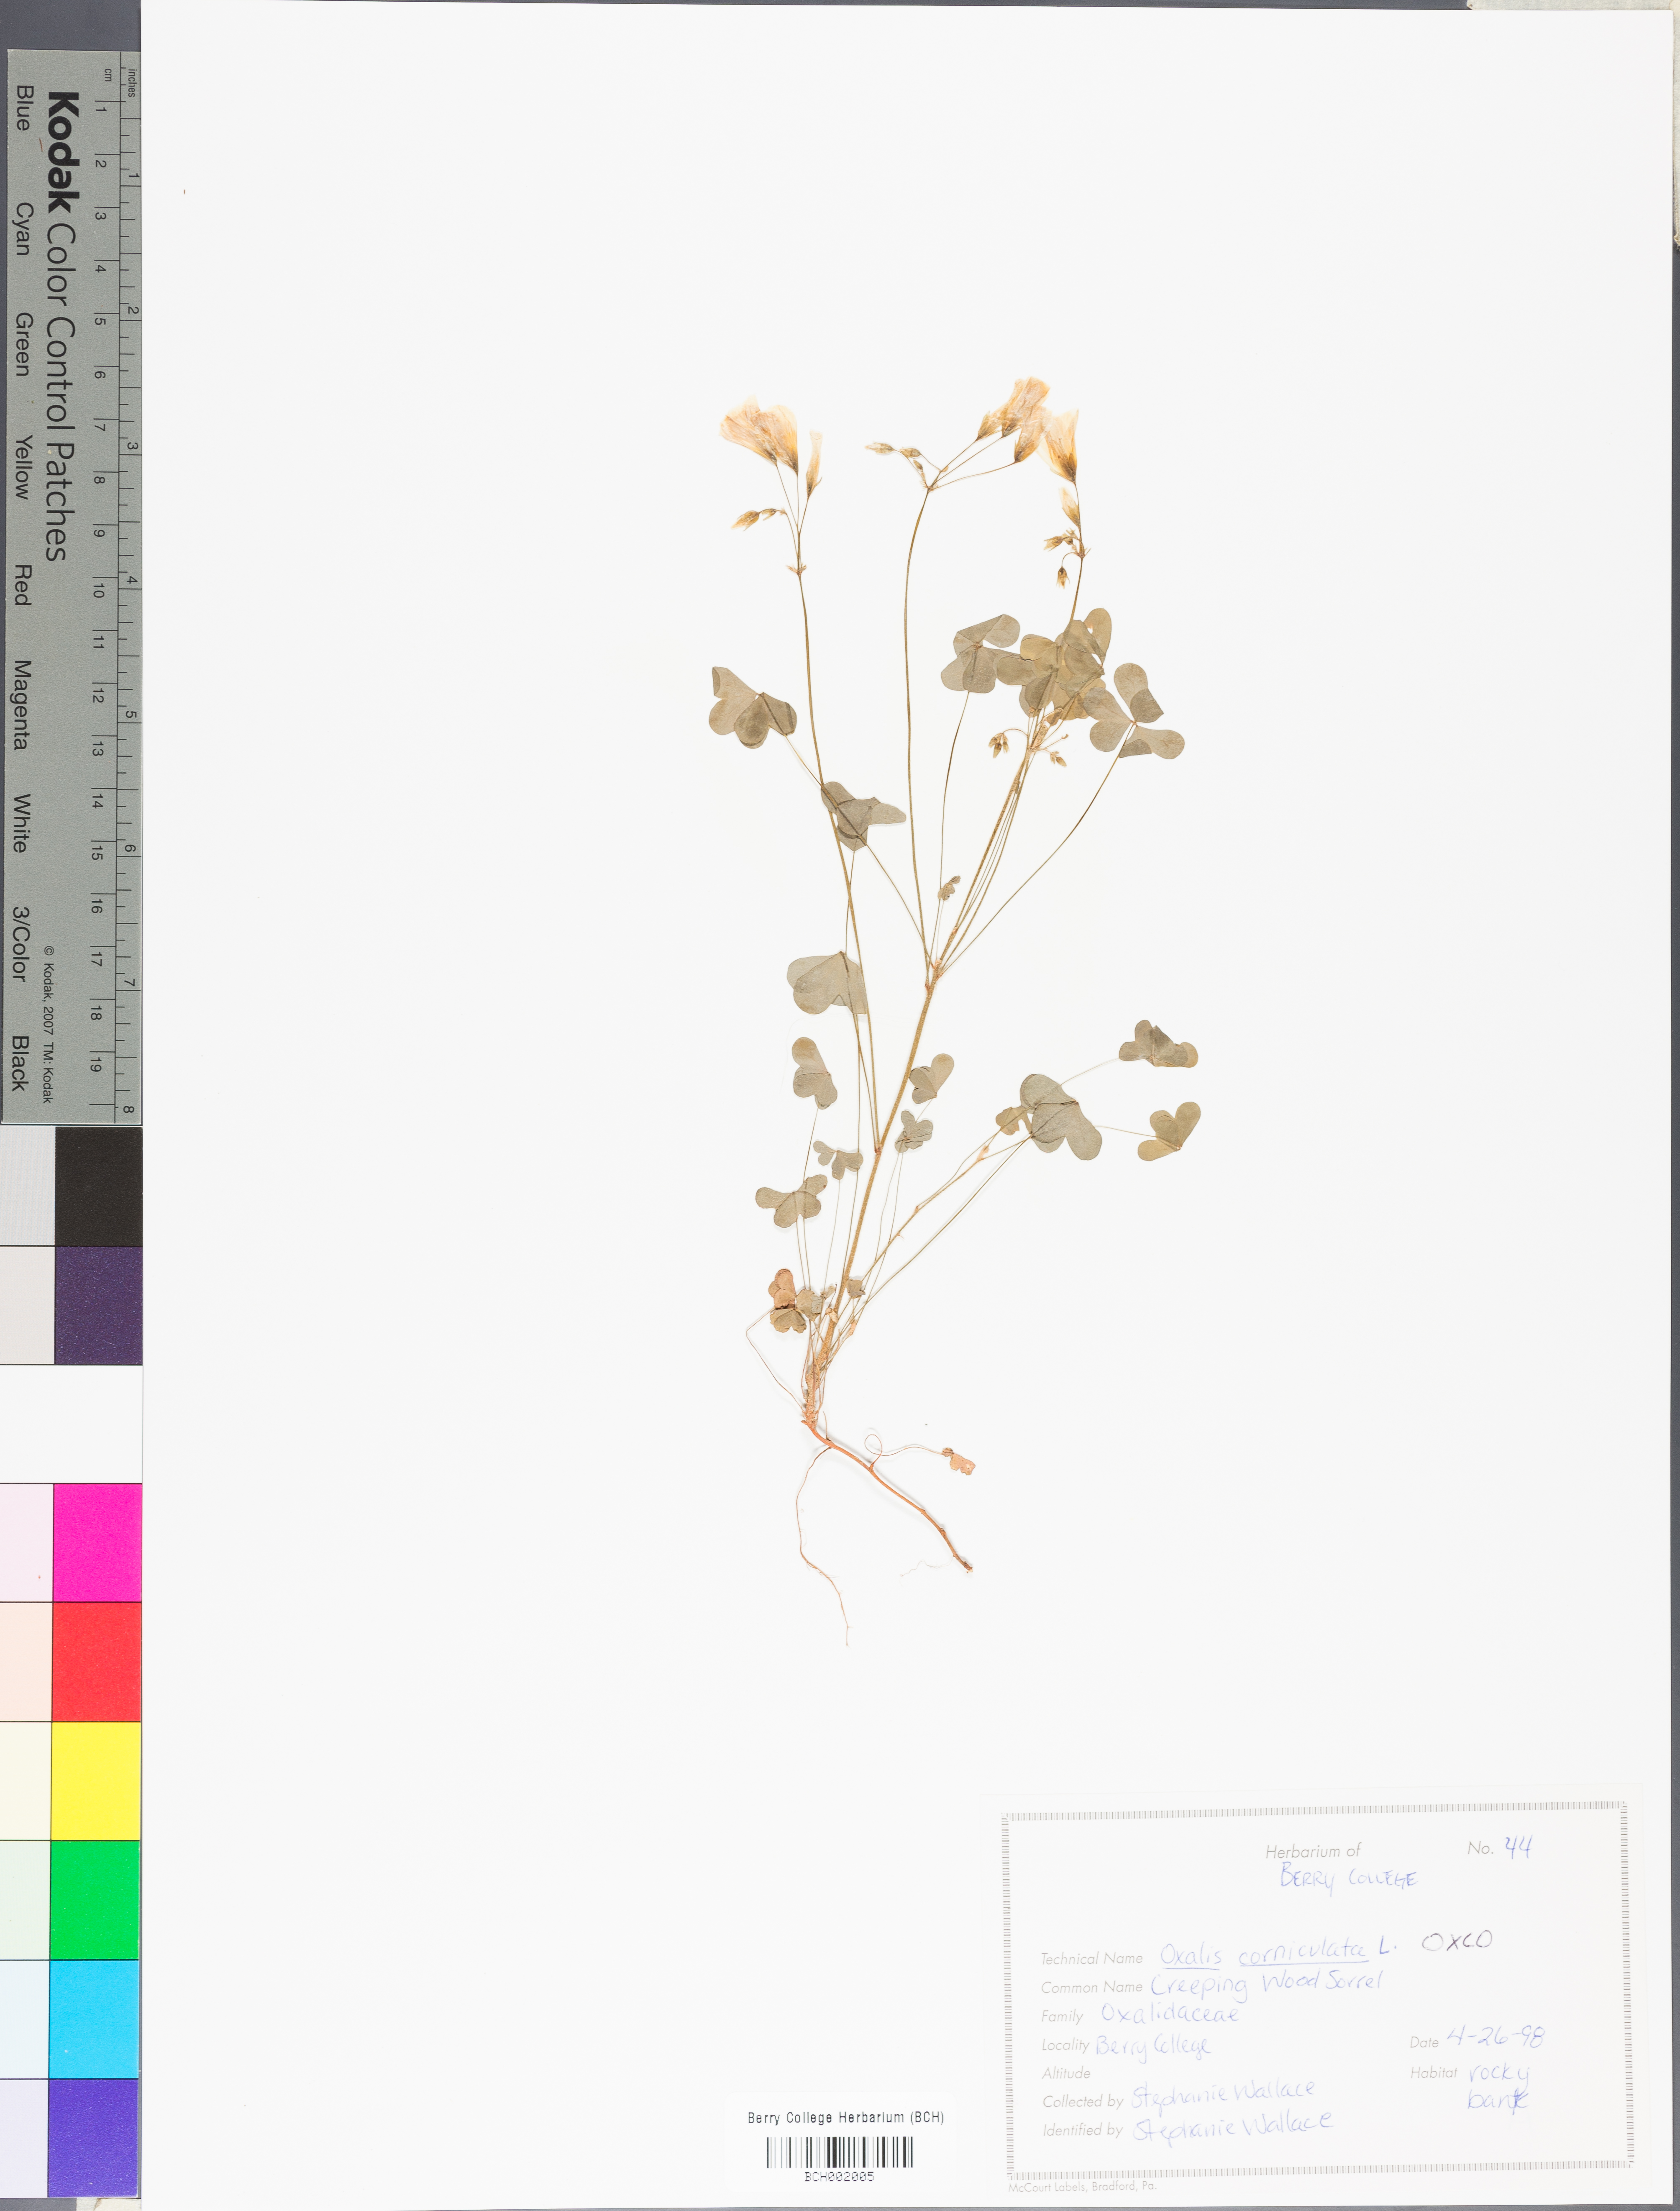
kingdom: Plantae
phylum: Tracheophyta
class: Magnoliopsida
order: Oxalidales
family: Oxalidaceae
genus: Oxalis
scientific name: Oxalis corniculata
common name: Procumbent yellow-sorrel
